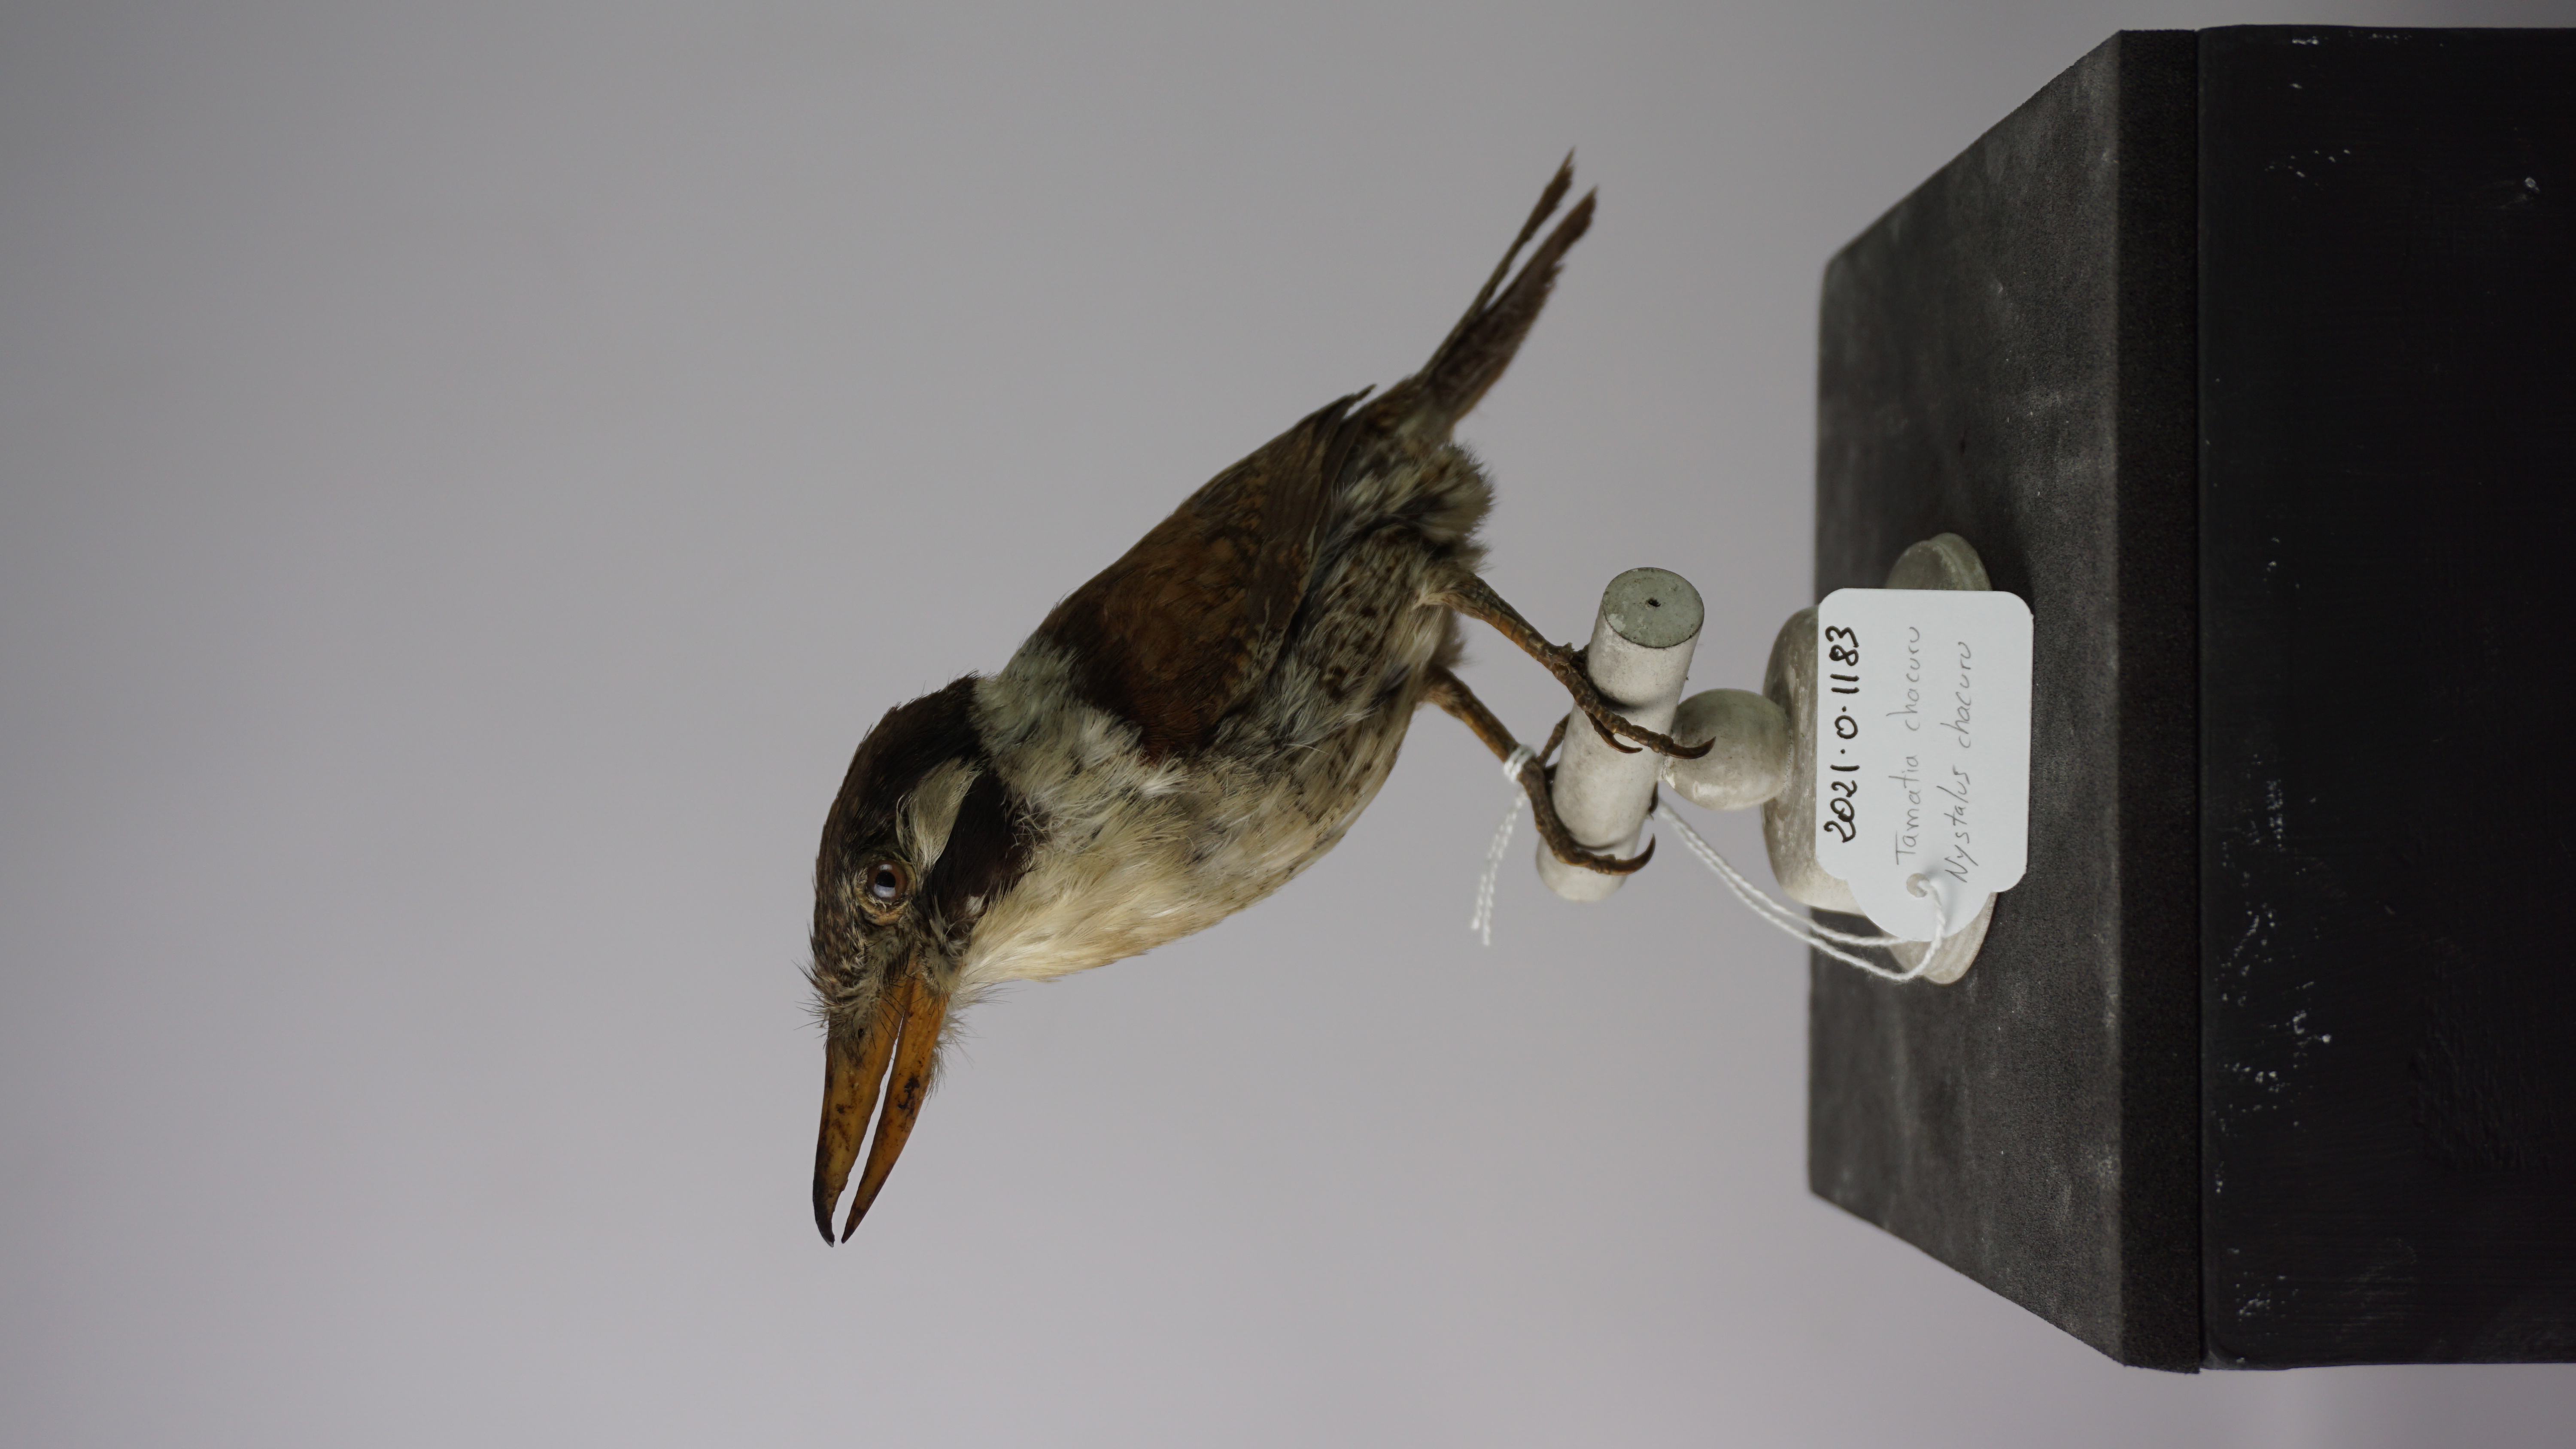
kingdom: Animalia
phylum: Chordata
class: Aves
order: Piciformes
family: Bucconidae
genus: Nystalus
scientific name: Nystalus chacuru
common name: White-eared puffbird
